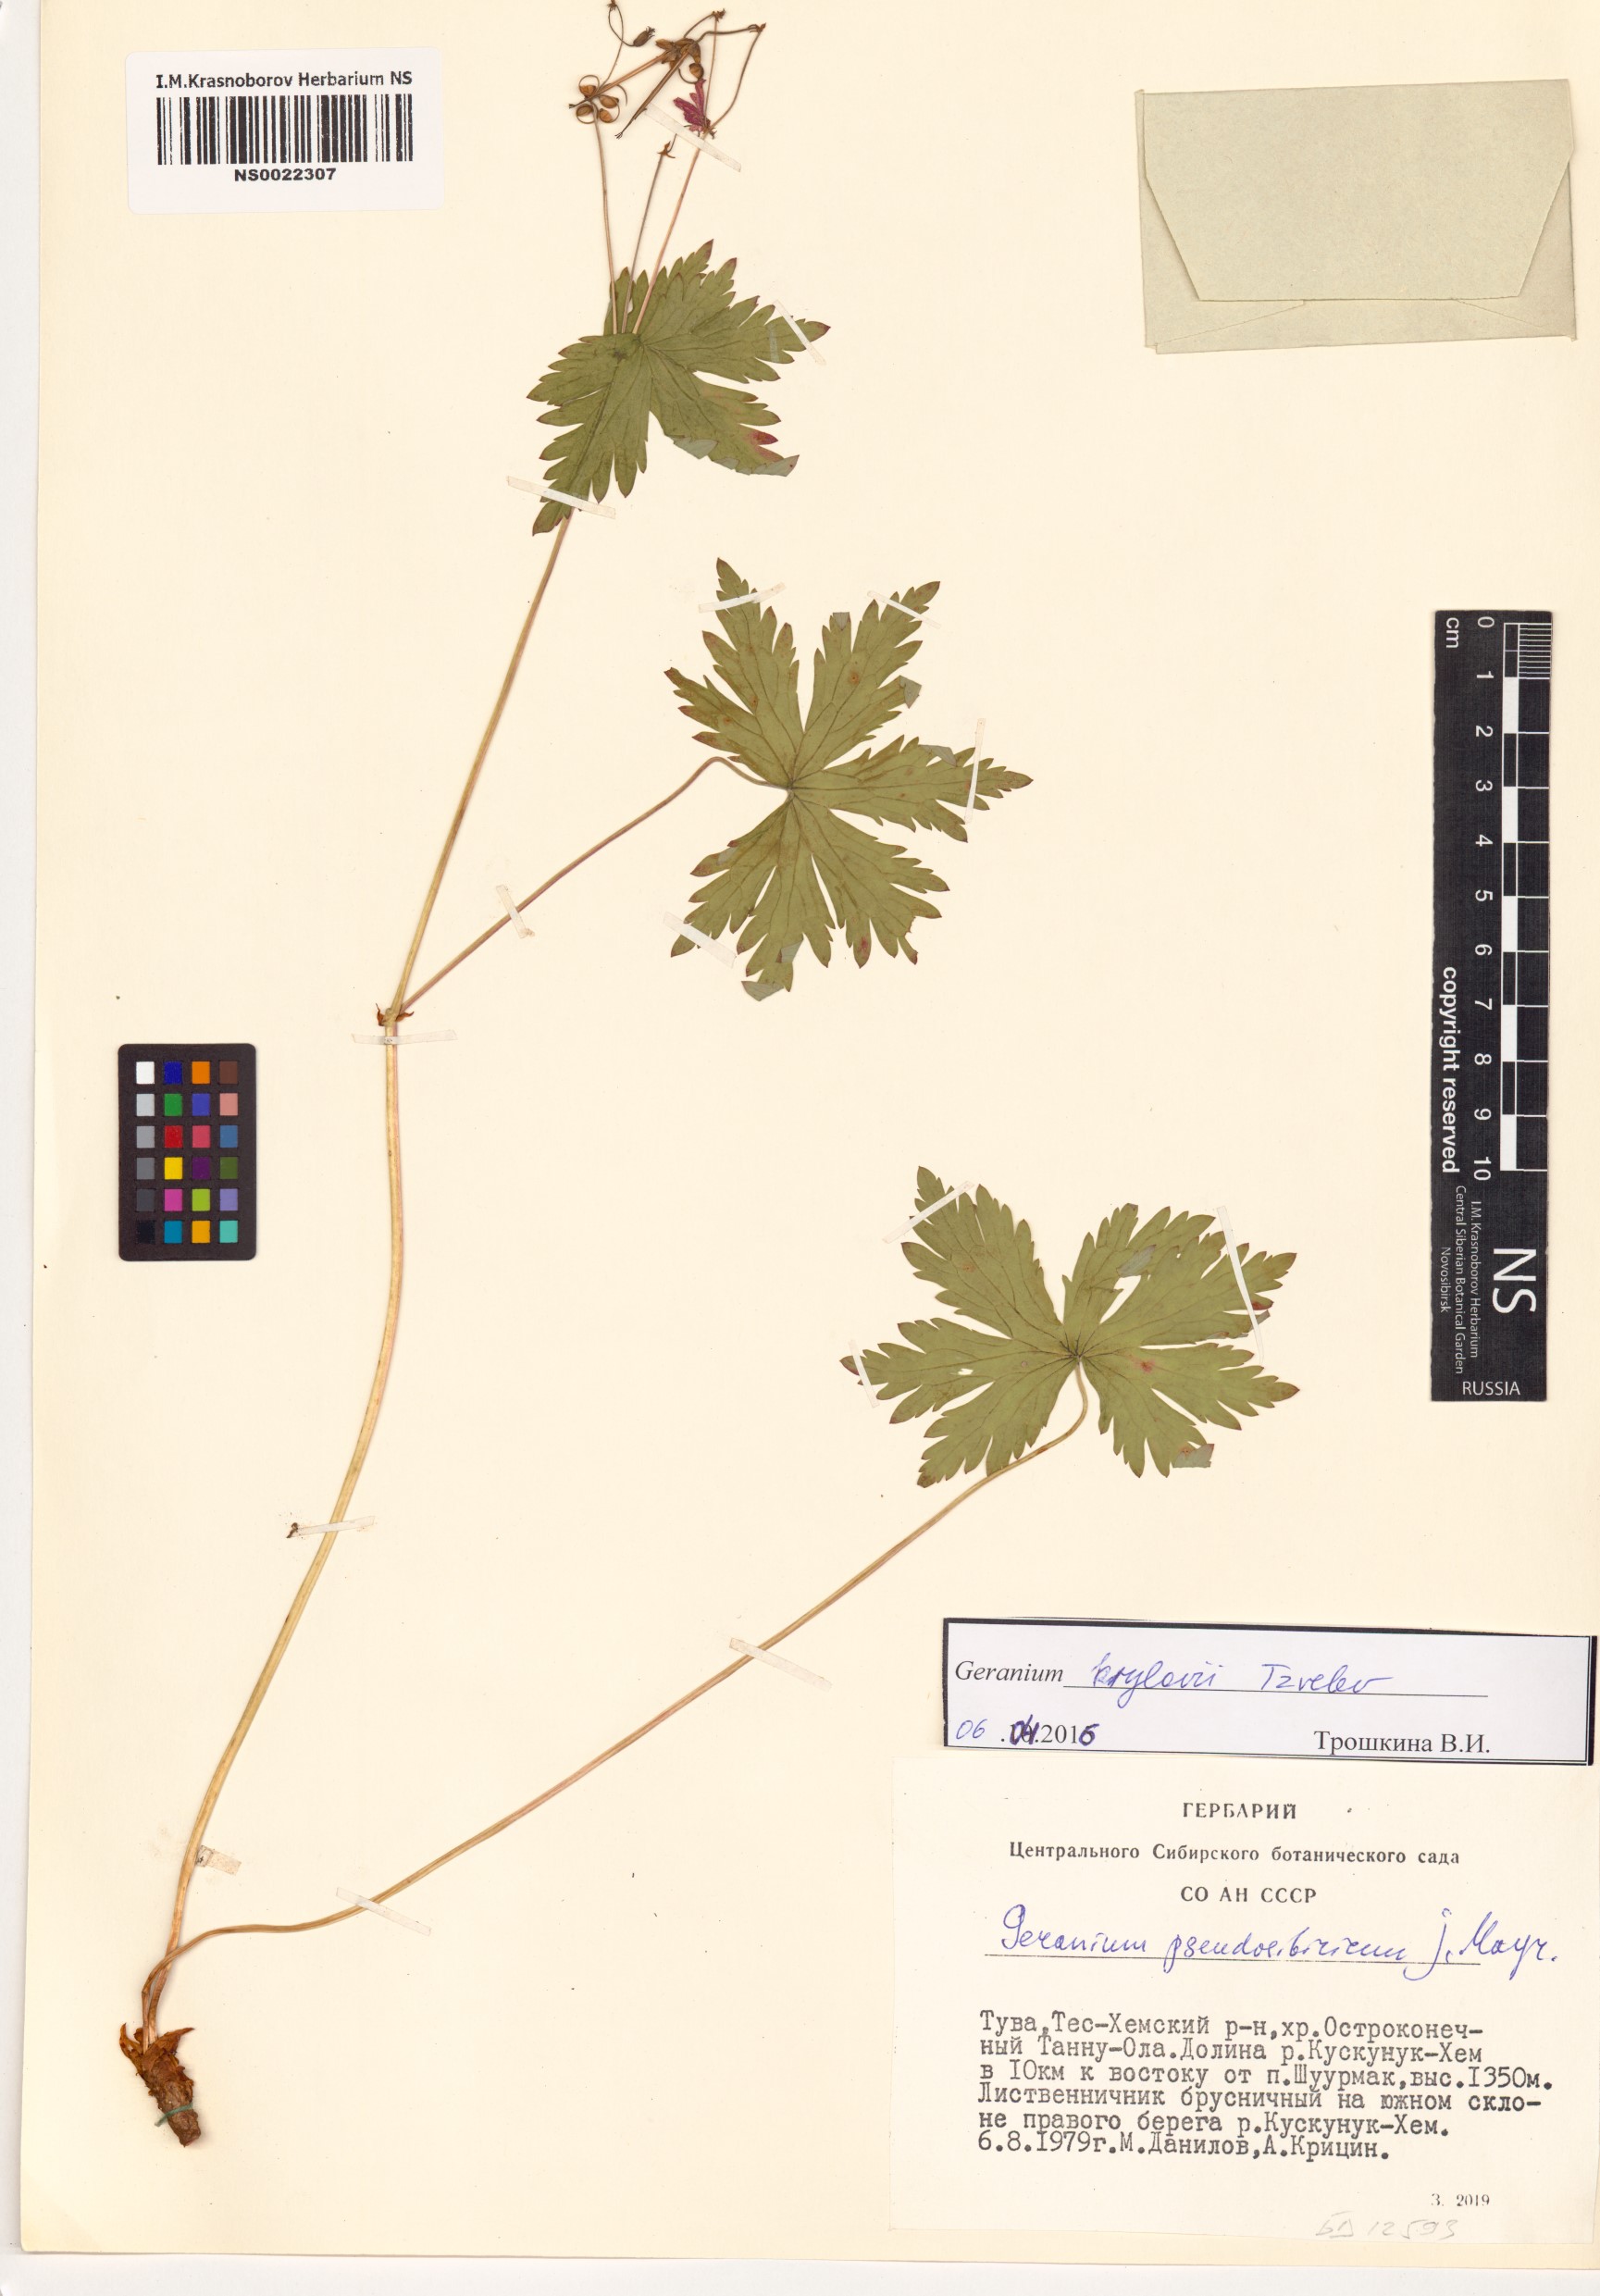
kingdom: Plantae
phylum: Tracheophyta
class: Magnoliopsida
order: Geraniales
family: Geraniaceae
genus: Geranium
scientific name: Geranium sylvaticum
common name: Wood crane's-bill
